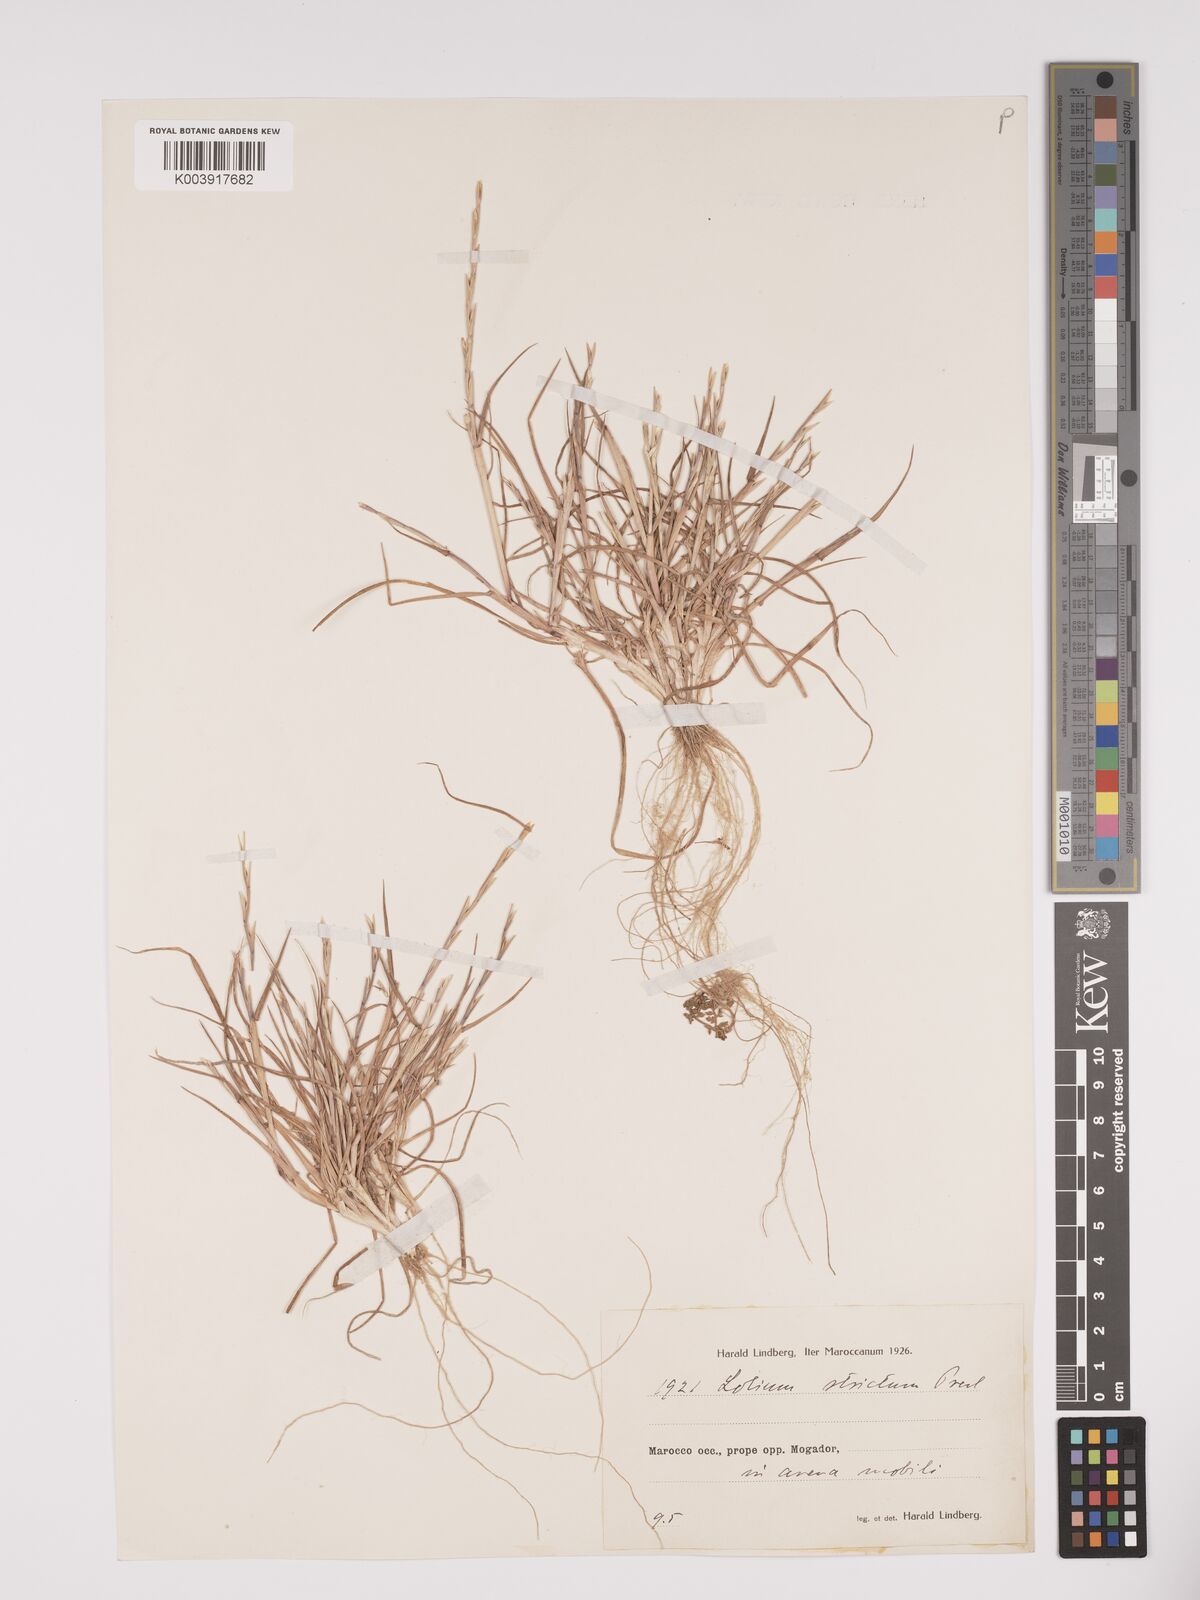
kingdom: Plantae
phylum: Tracheophyta
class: Liliopsida
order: Poales
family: Poaceae
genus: Lolium
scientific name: Lolium rigidum
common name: Wimmera ryegrass
